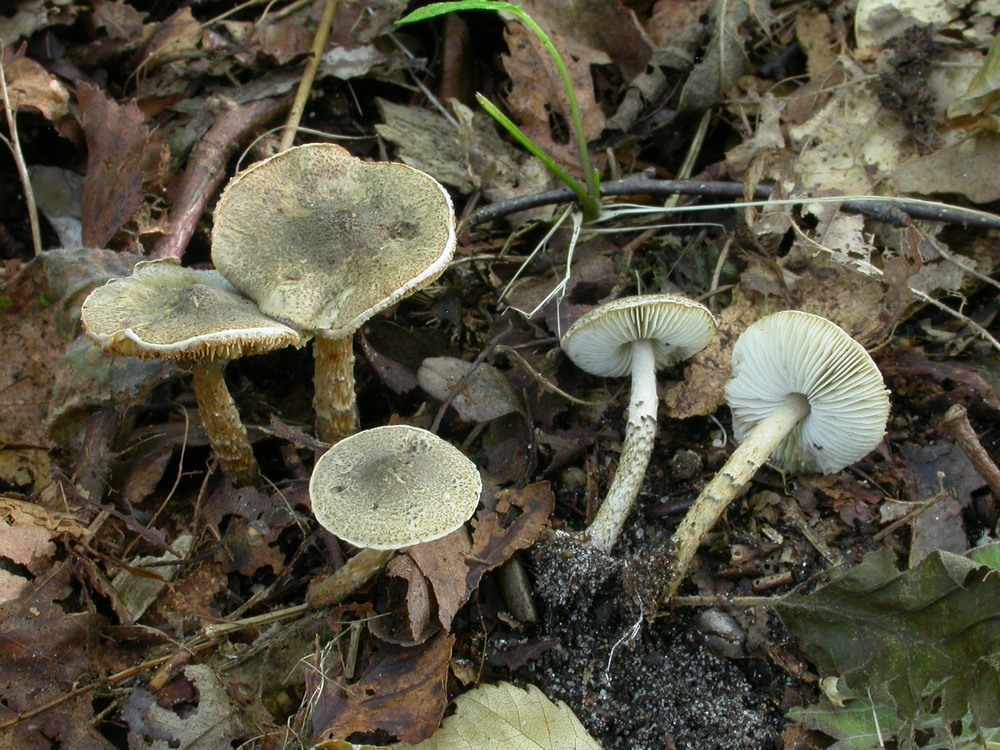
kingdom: Fungi
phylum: Basidiomycota
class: Agaricomycetes
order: Agaricales
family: Agaricaceae
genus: Lepiota
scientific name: Lepiota griseovirens
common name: grågrøn parasolhat
